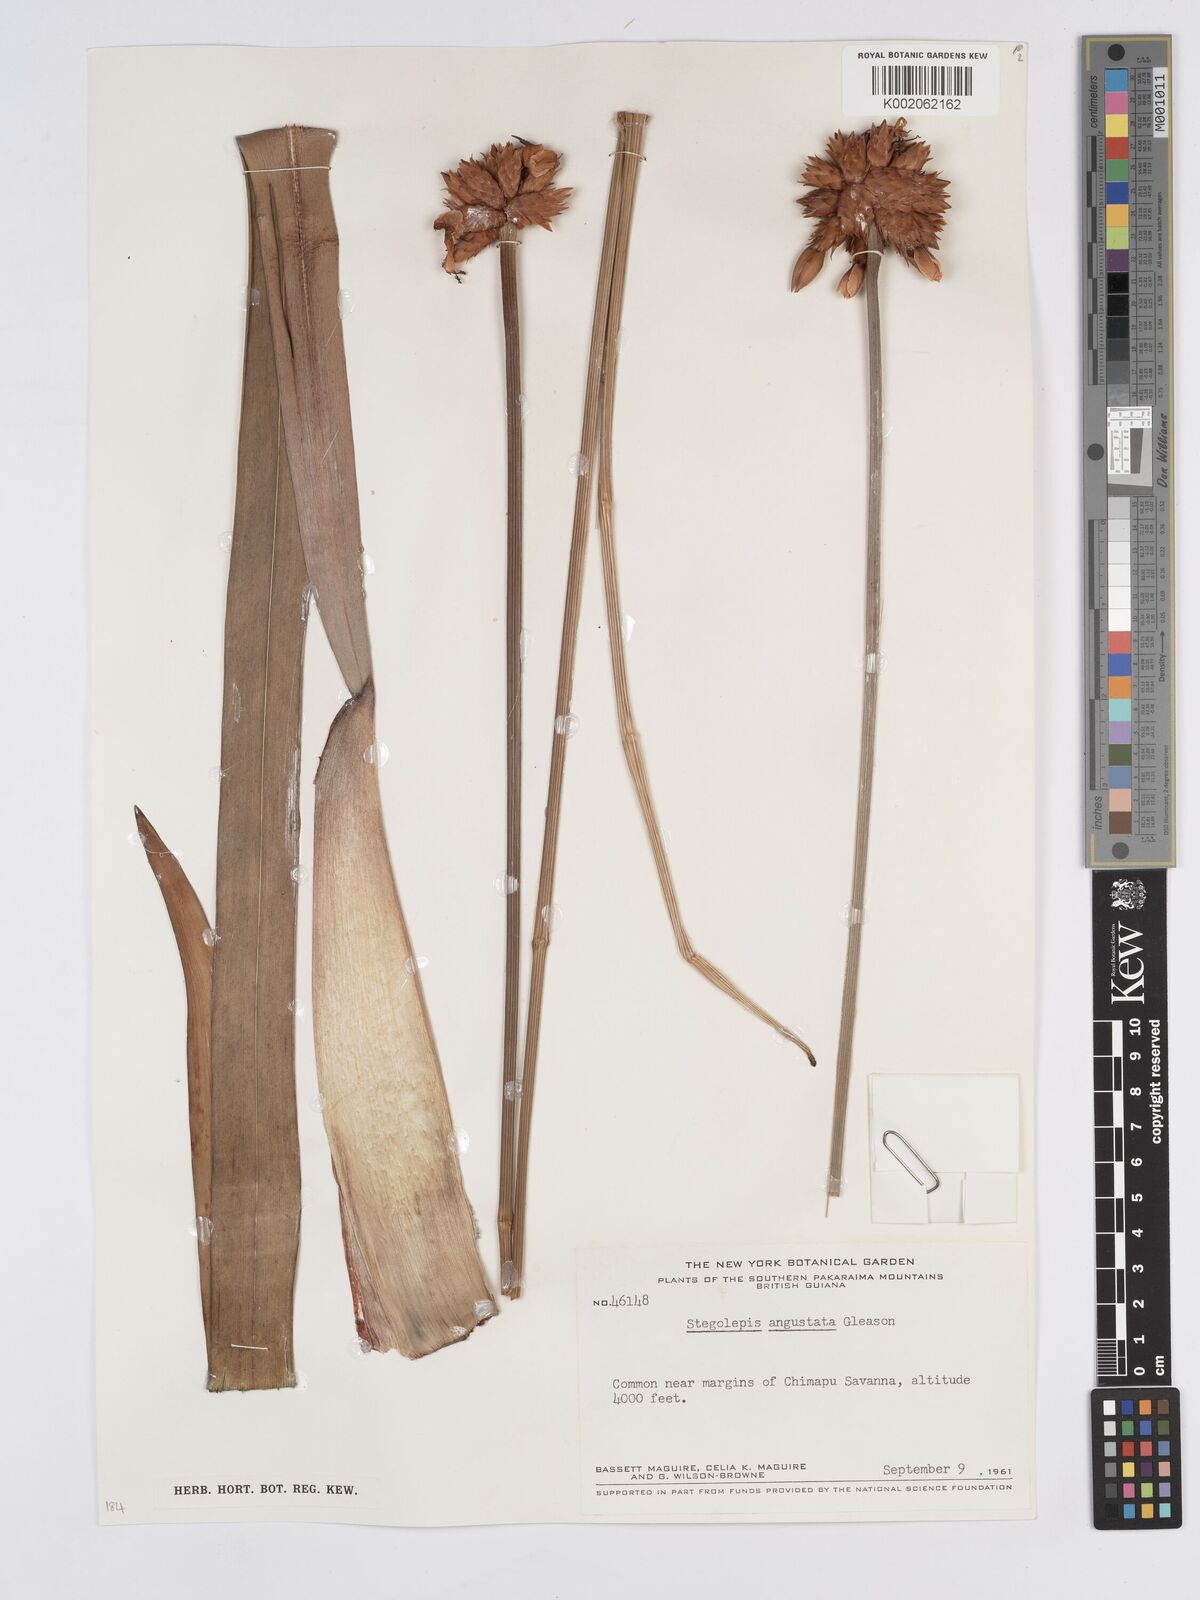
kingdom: Plantae
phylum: Tracheophyta
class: Liliopsida
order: Poales
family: Rapateaceae
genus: Stegolepis
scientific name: Stegolepis angustata
